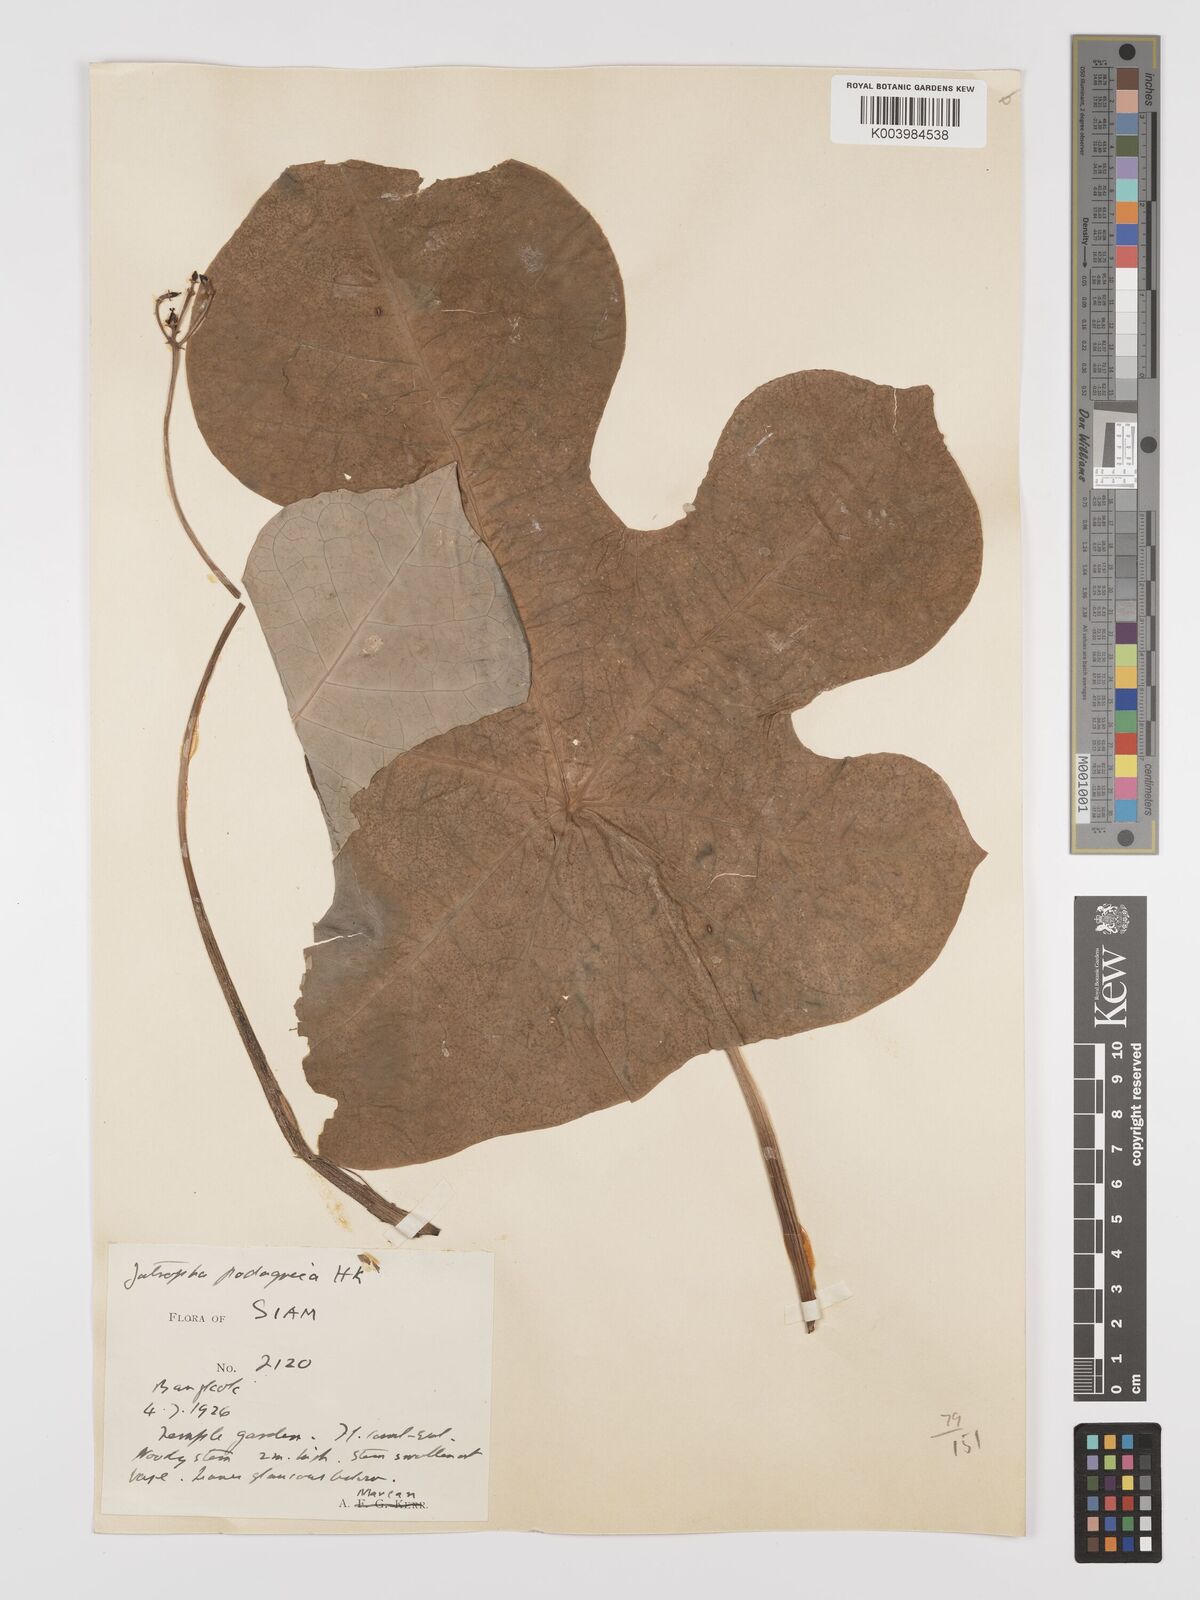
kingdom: Plantae
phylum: Tracheophyta
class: Magnoliopsida
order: Malpighiales
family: Euphorbiaceae
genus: Jatropha
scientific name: Jatropha podagrica
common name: Gout stalk
